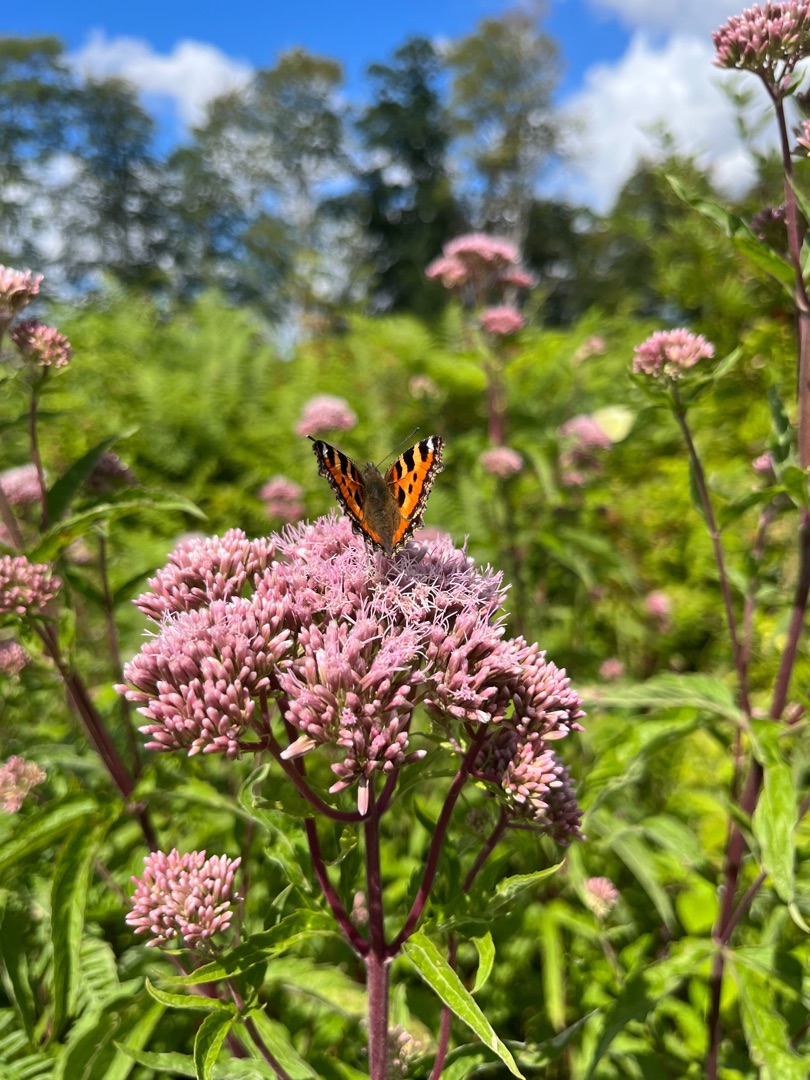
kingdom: Animalia
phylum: Arthropoda
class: Insecta
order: Lepidoptera
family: Nymphalidae
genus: Aglais
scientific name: Aglais urticae
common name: Nældens takvinge
